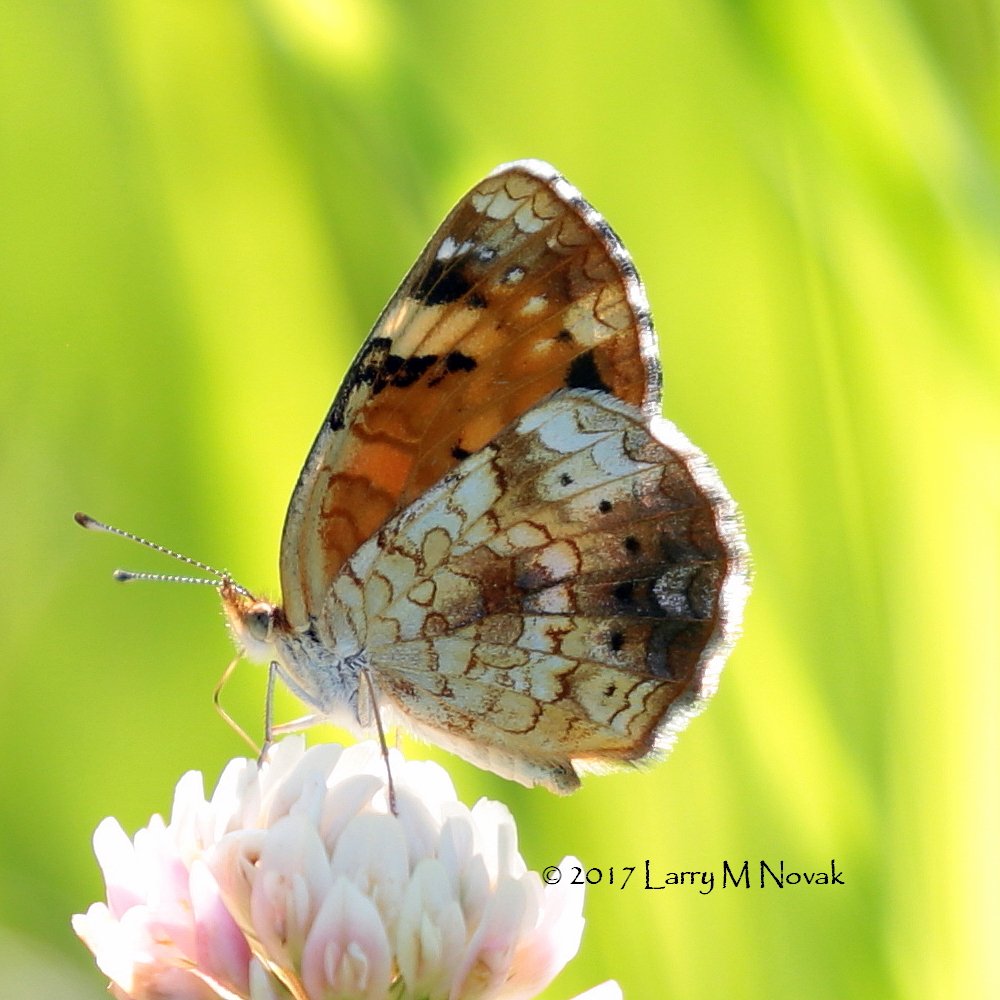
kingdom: Animalia
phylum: Arthropoda
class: Insecta
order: Lepidoptera
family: Nymphalidae
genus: Phyciodes
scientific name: Phyciodes tharos
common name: Pearl Crescent
